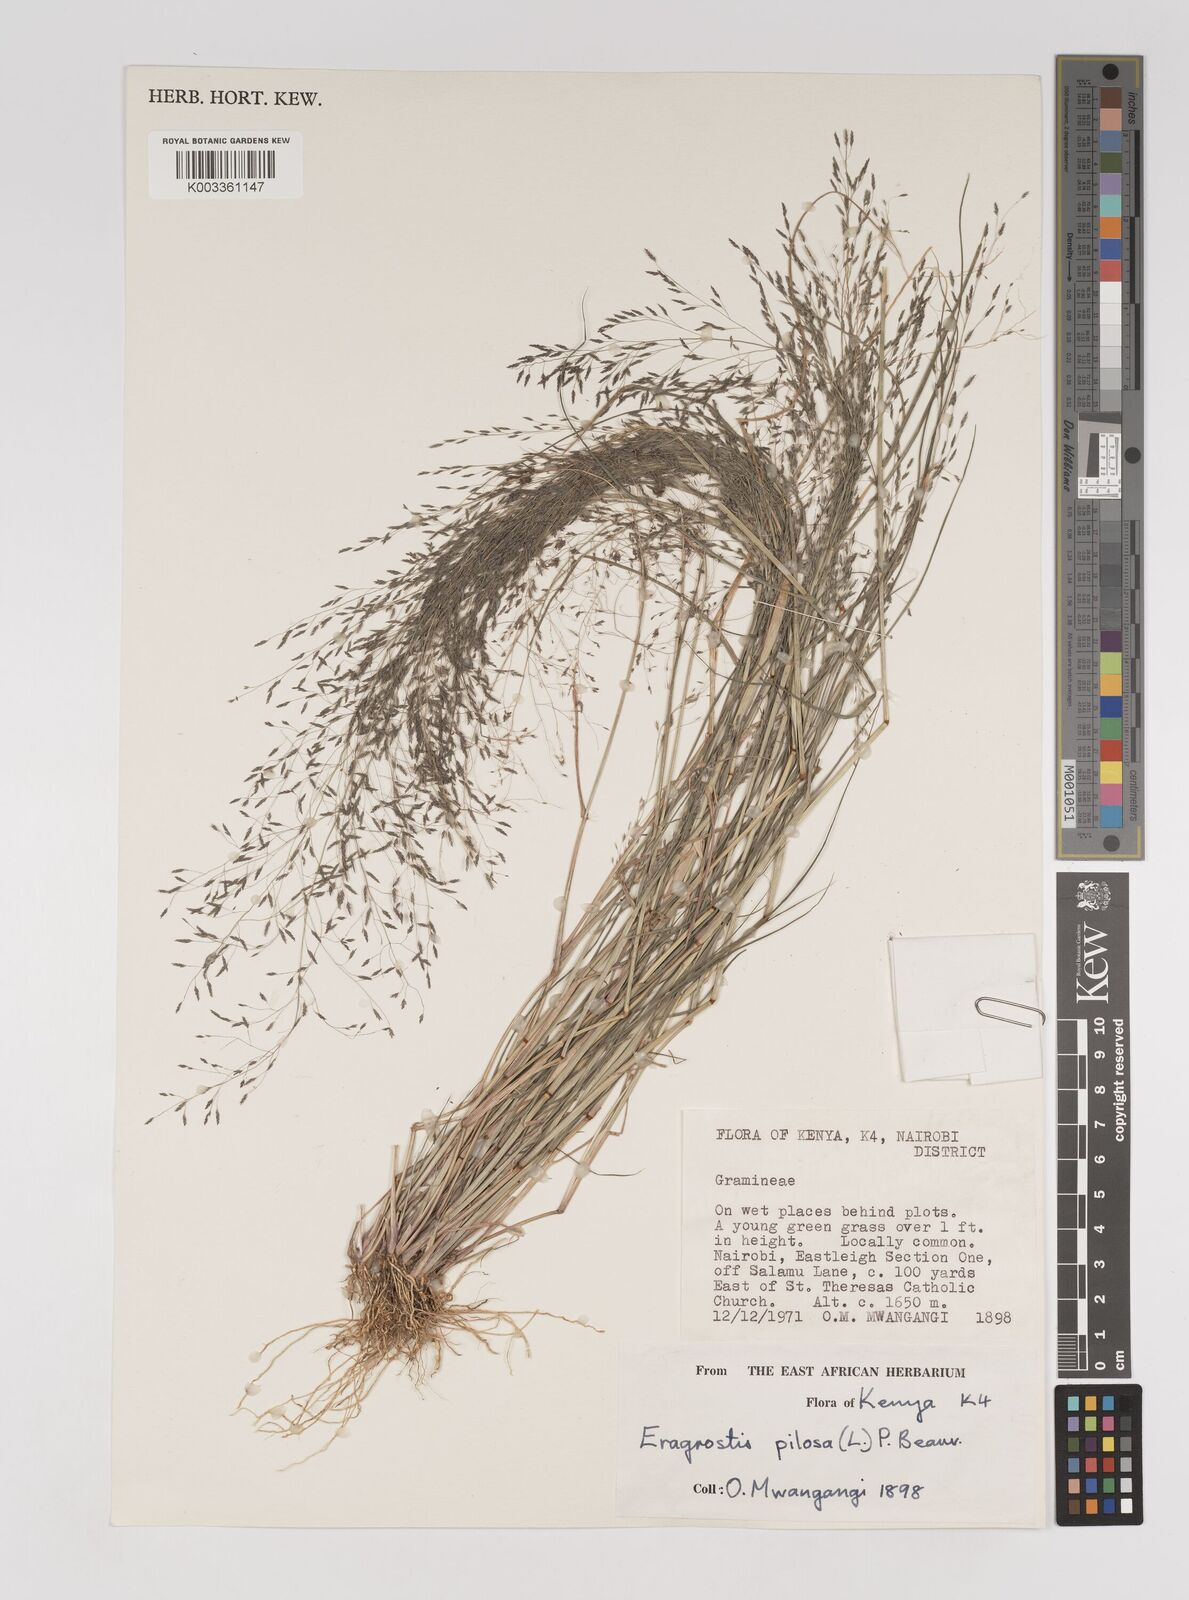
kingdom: Plantae
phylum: Tracheophyta
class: Liliopsida
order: Poales
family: Poaceae
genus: Eragrostis
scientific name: Eragrostis pilosa
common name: Indian lovegrass
